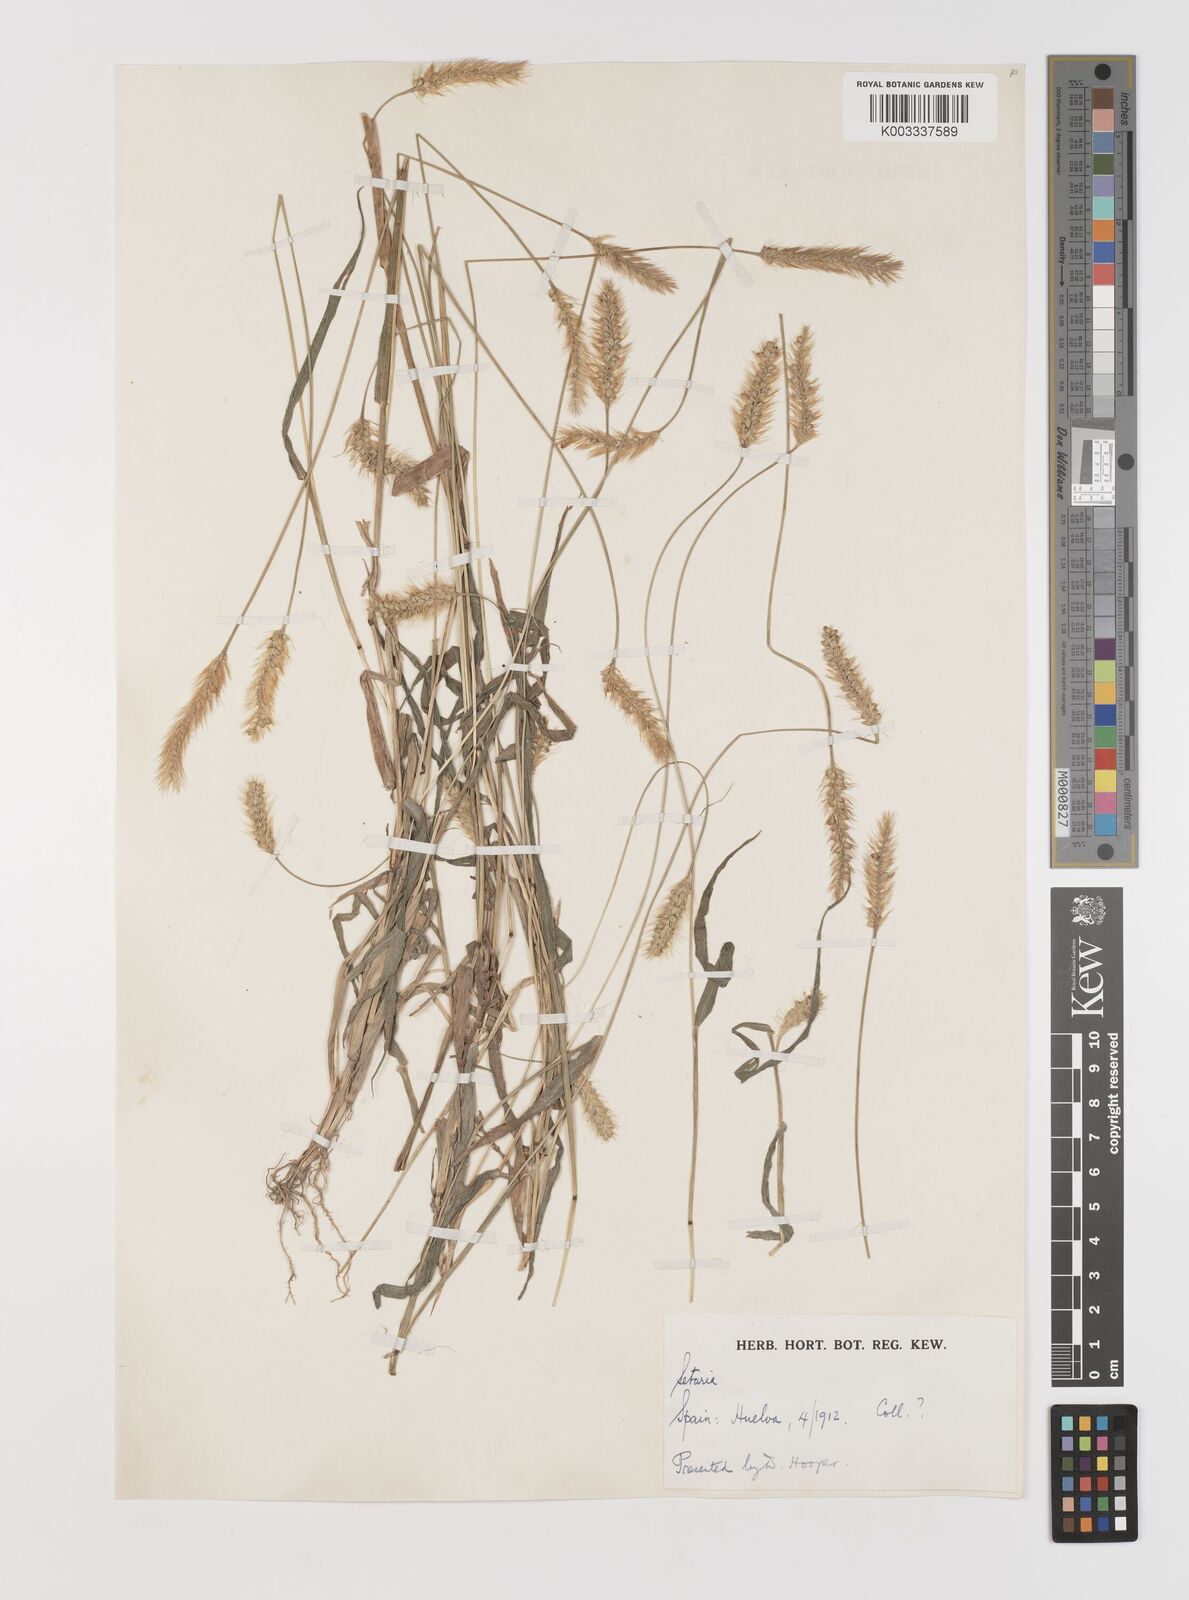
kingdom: Plantae
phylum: Tracheophyta
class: Liliopsida
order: Poales
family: Poaceae
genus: Setaria
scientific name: Setaria pumila
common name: Yellow bristle-grass
